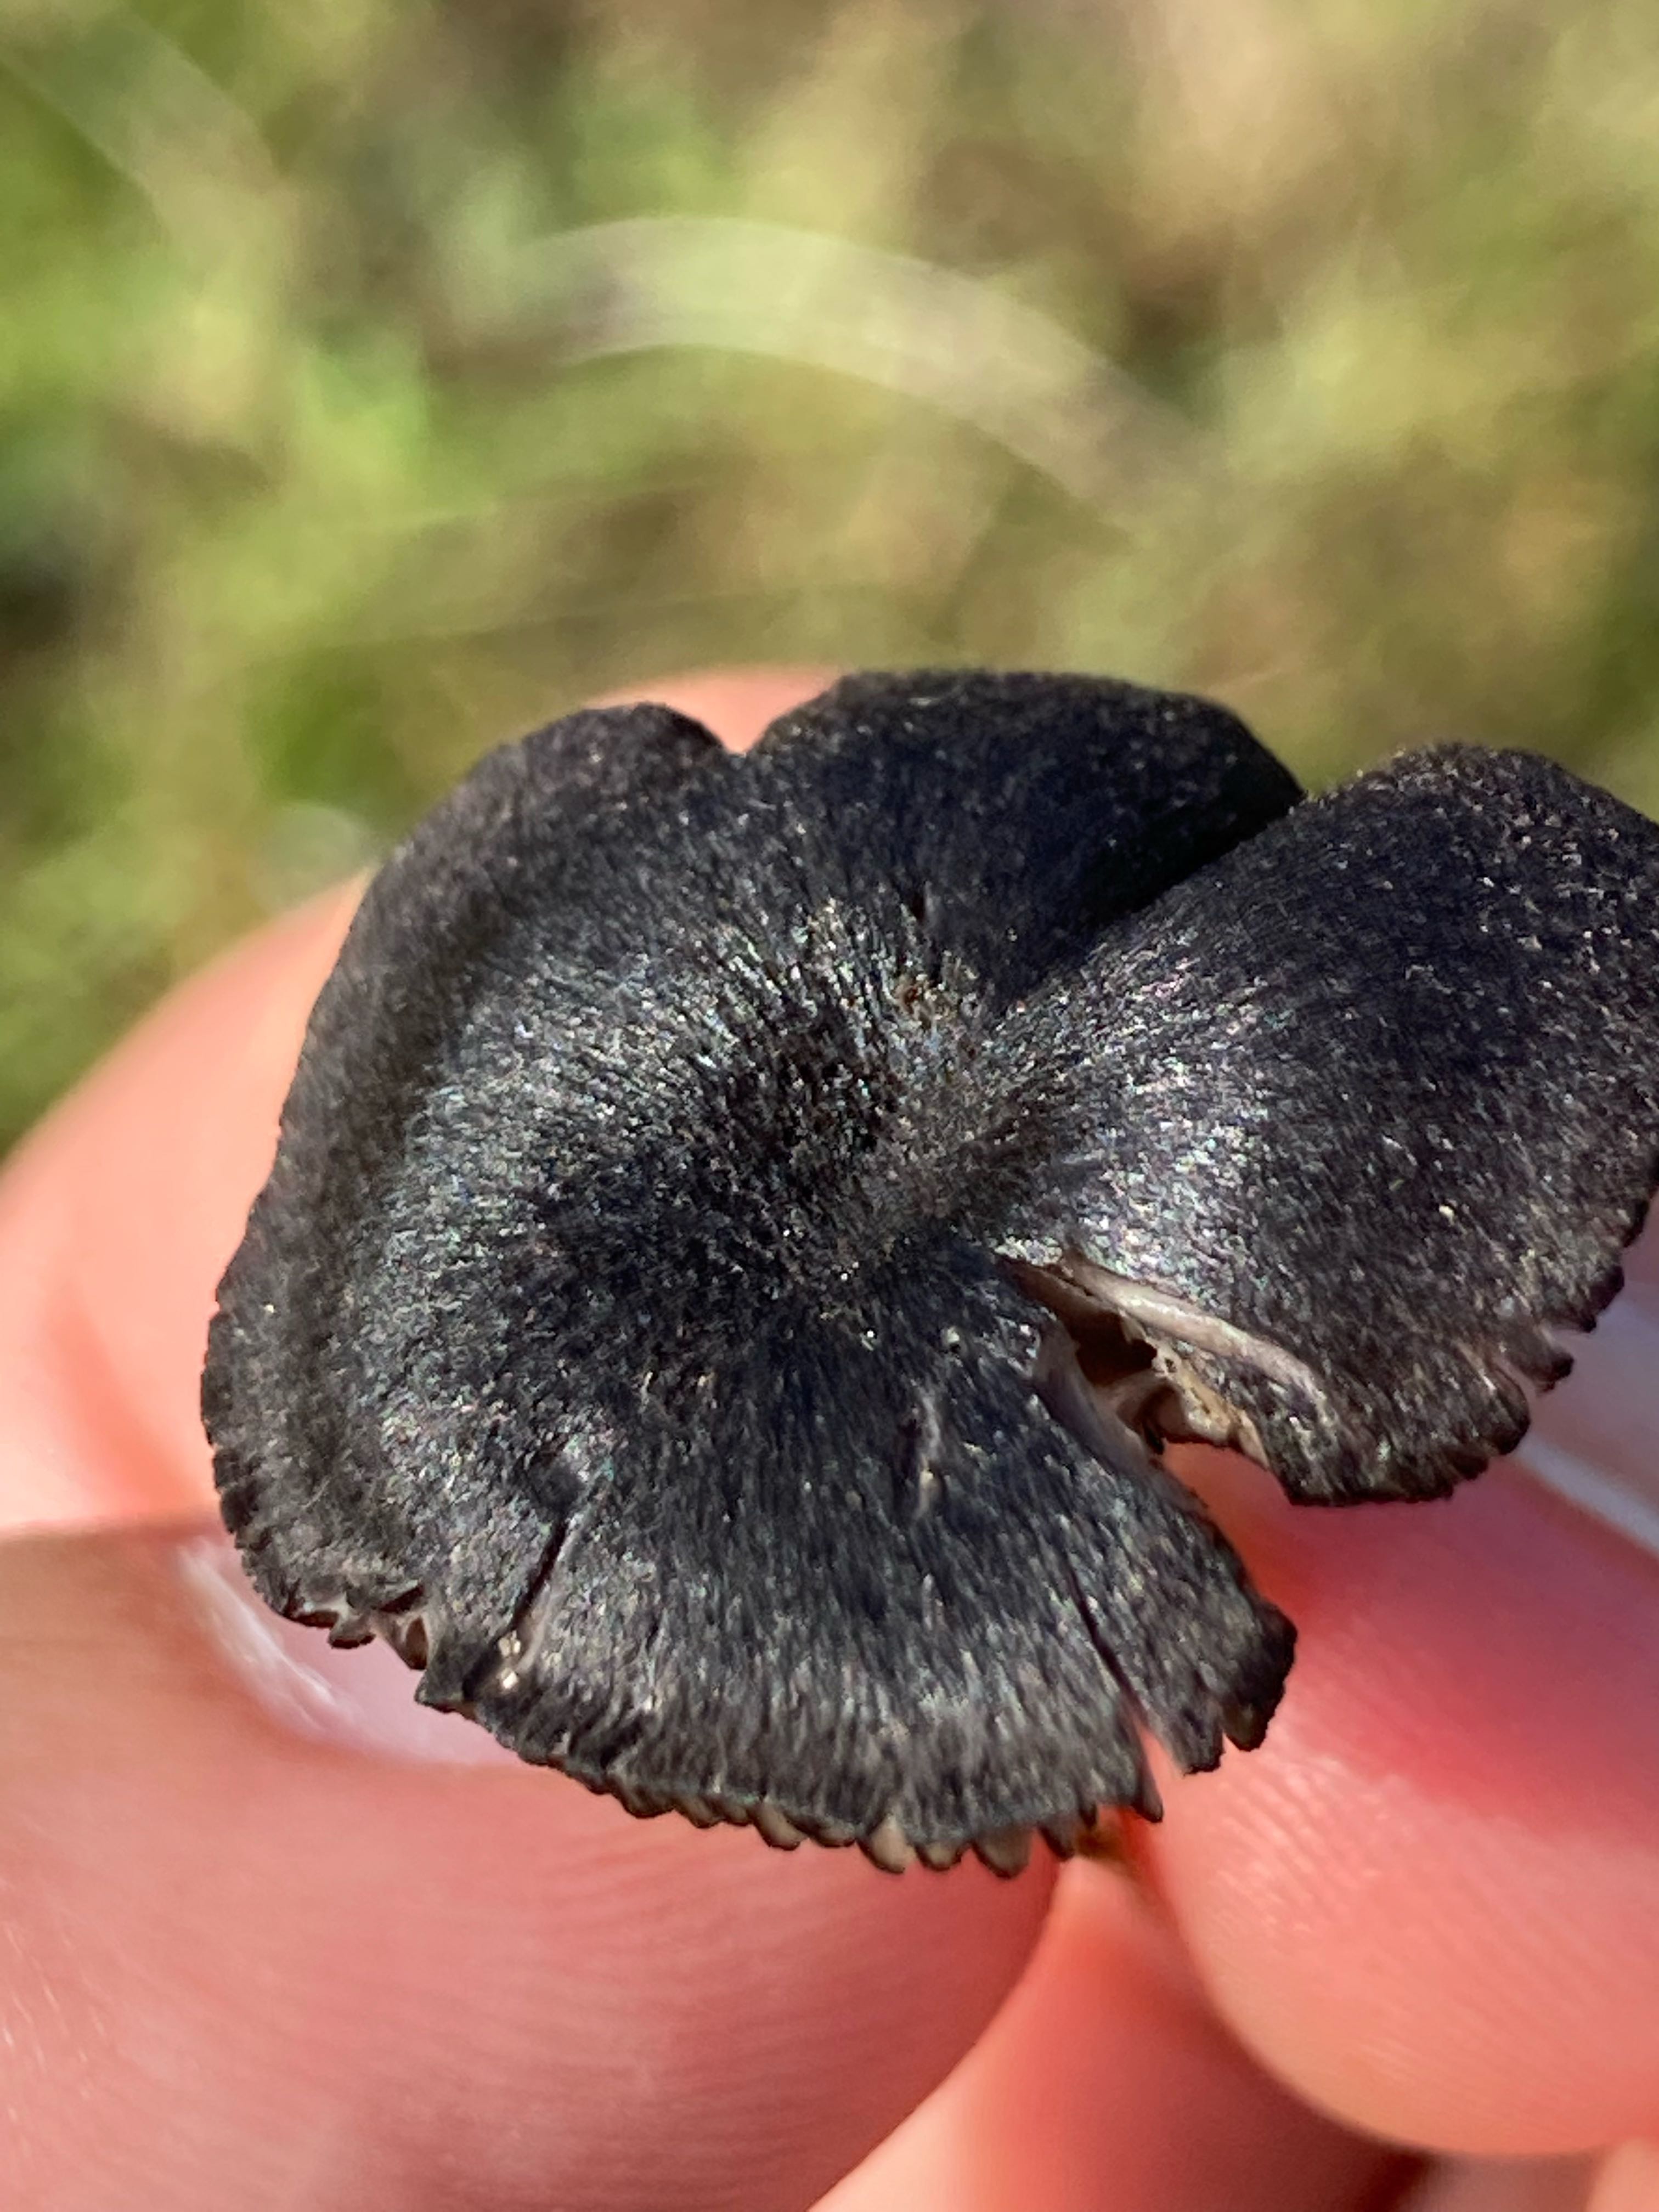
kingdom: Fungi
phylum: Basidiomycota
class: Agaricomycetes
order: Agaricales
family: Entolomataceae
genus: Entoloma
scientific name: Entoloma
